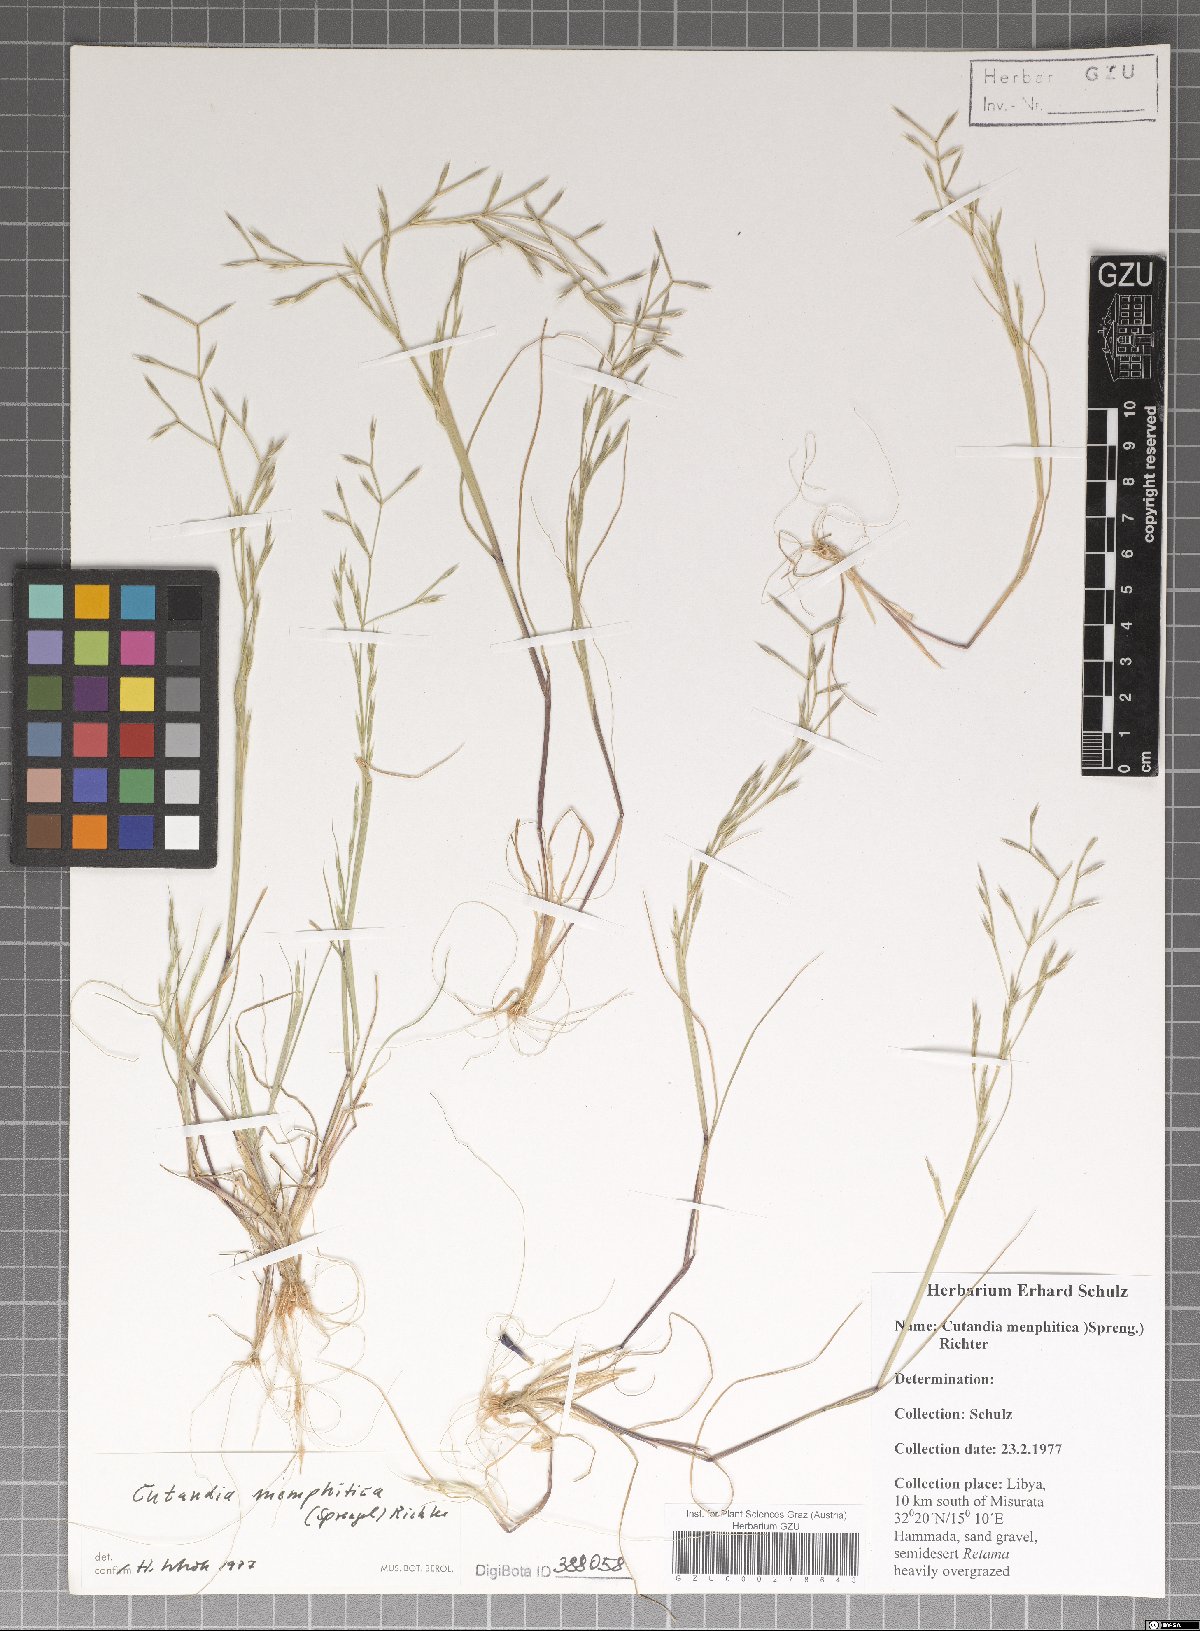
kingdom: Plantae
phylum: Tracheophyta
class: Liliopsida
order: Poales
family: Poaceae
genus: Cutandia
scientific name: Cutandia memphitica
